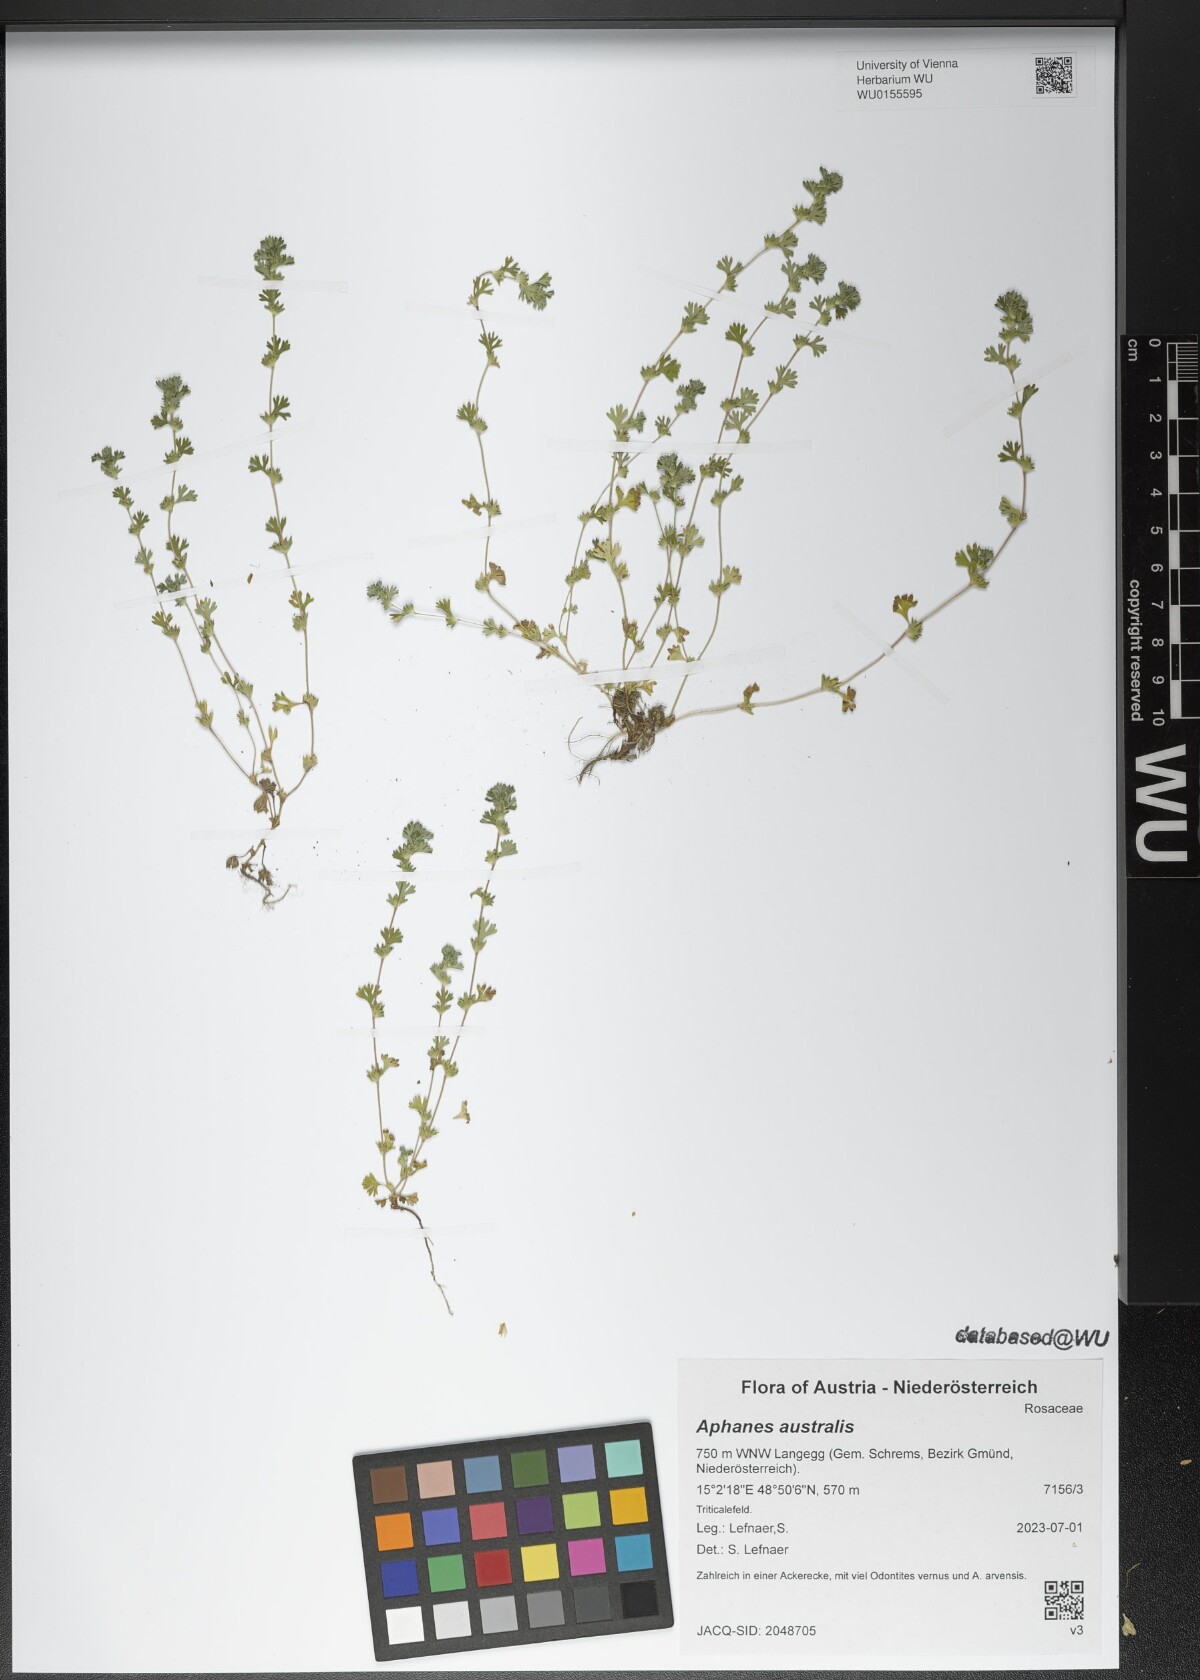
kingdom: Plantae
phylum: Tracheophyta
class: Magnoliopsida
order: Rosales
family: Rosaceae
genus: Aphanes
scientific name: Aphanes australis
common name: Slender parsley-piert
